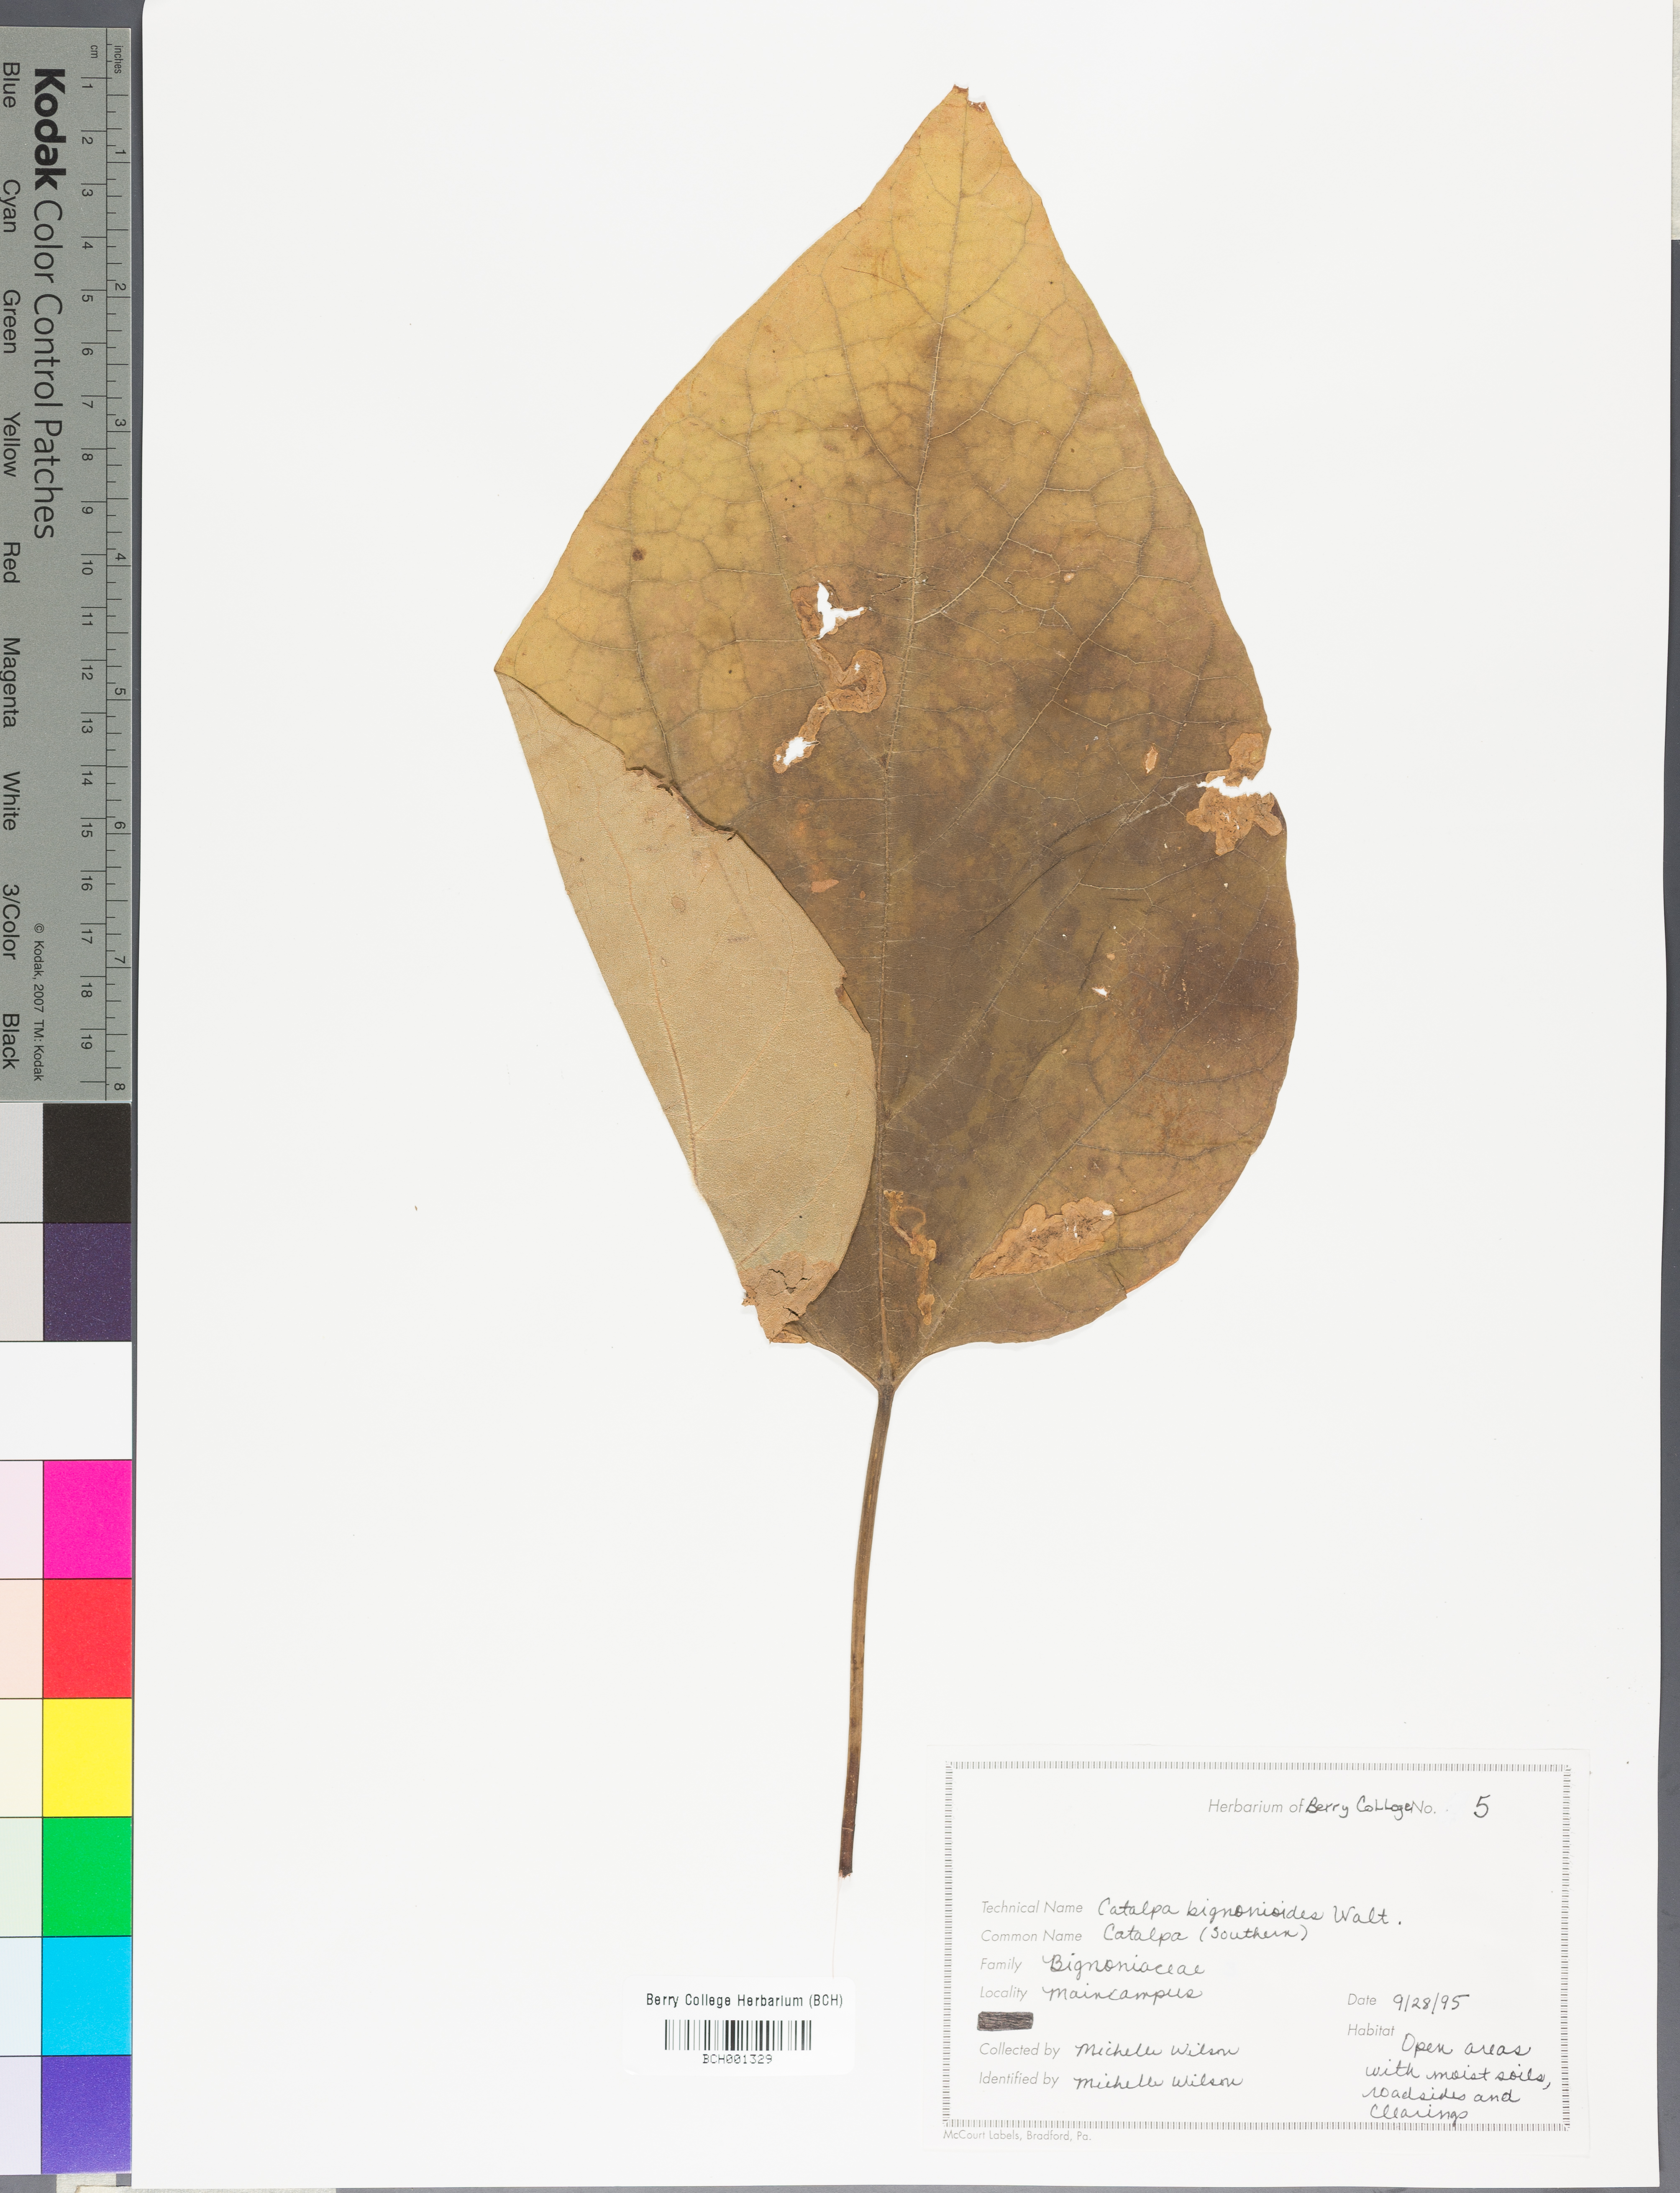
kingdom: Plantae
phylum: Tracheophyta
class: Magnoliopsida
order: Lamiales
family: Bignoniaceae
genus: Catalpa
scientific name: Catalpa bignonioides
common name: Southern catalpa
